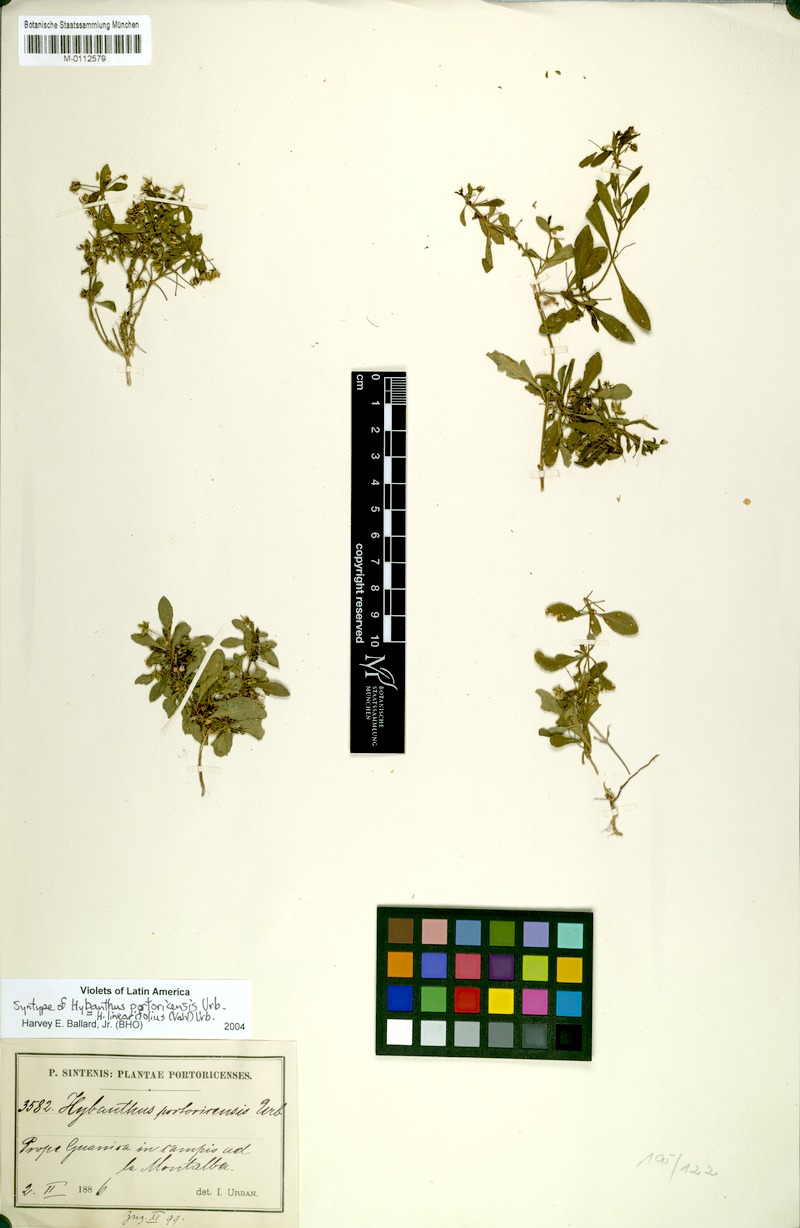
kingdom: Plantae
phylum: Tracheophyta
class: Magnoliopsida
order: Malpighiales
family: Violaceae
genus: Pombalia
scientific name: Pombalia linearifolia
